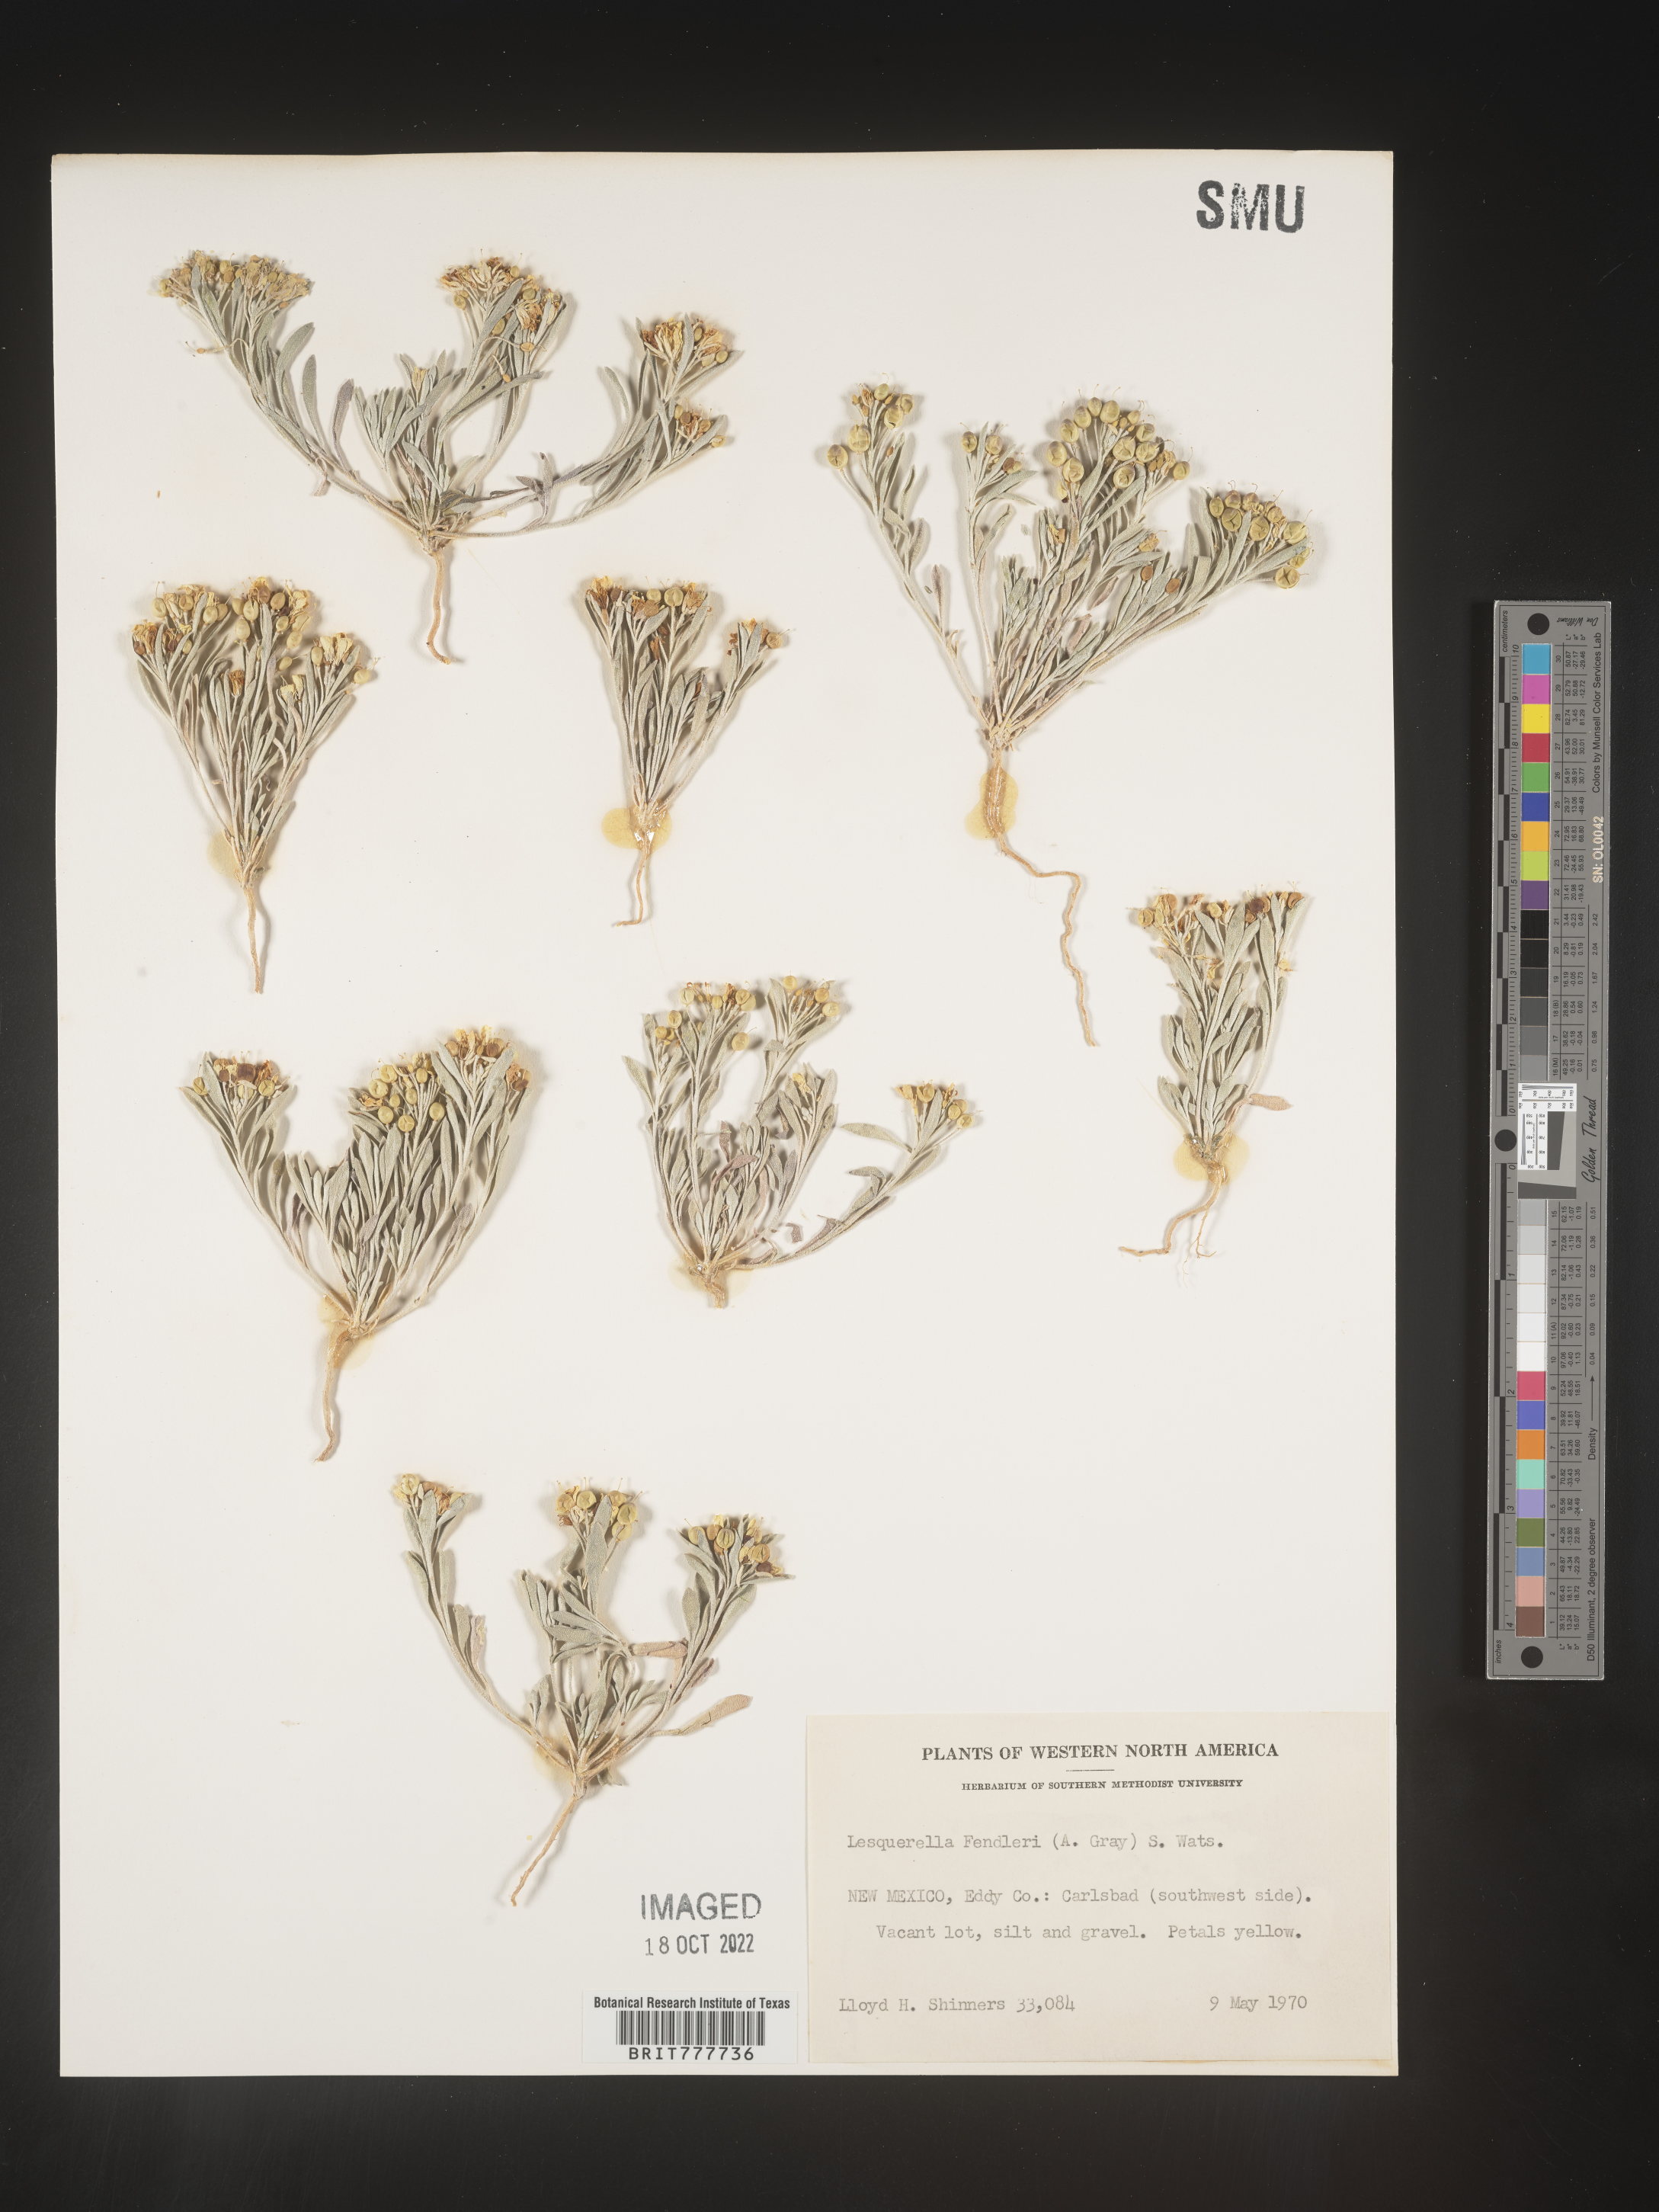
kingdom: Plantae
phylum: Tracheophyta
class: Magnoliopsida
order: Brassicales
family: Brassicaceae
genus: Physaria
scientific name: Physaria fendleri
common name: Fendler's bladderpod
